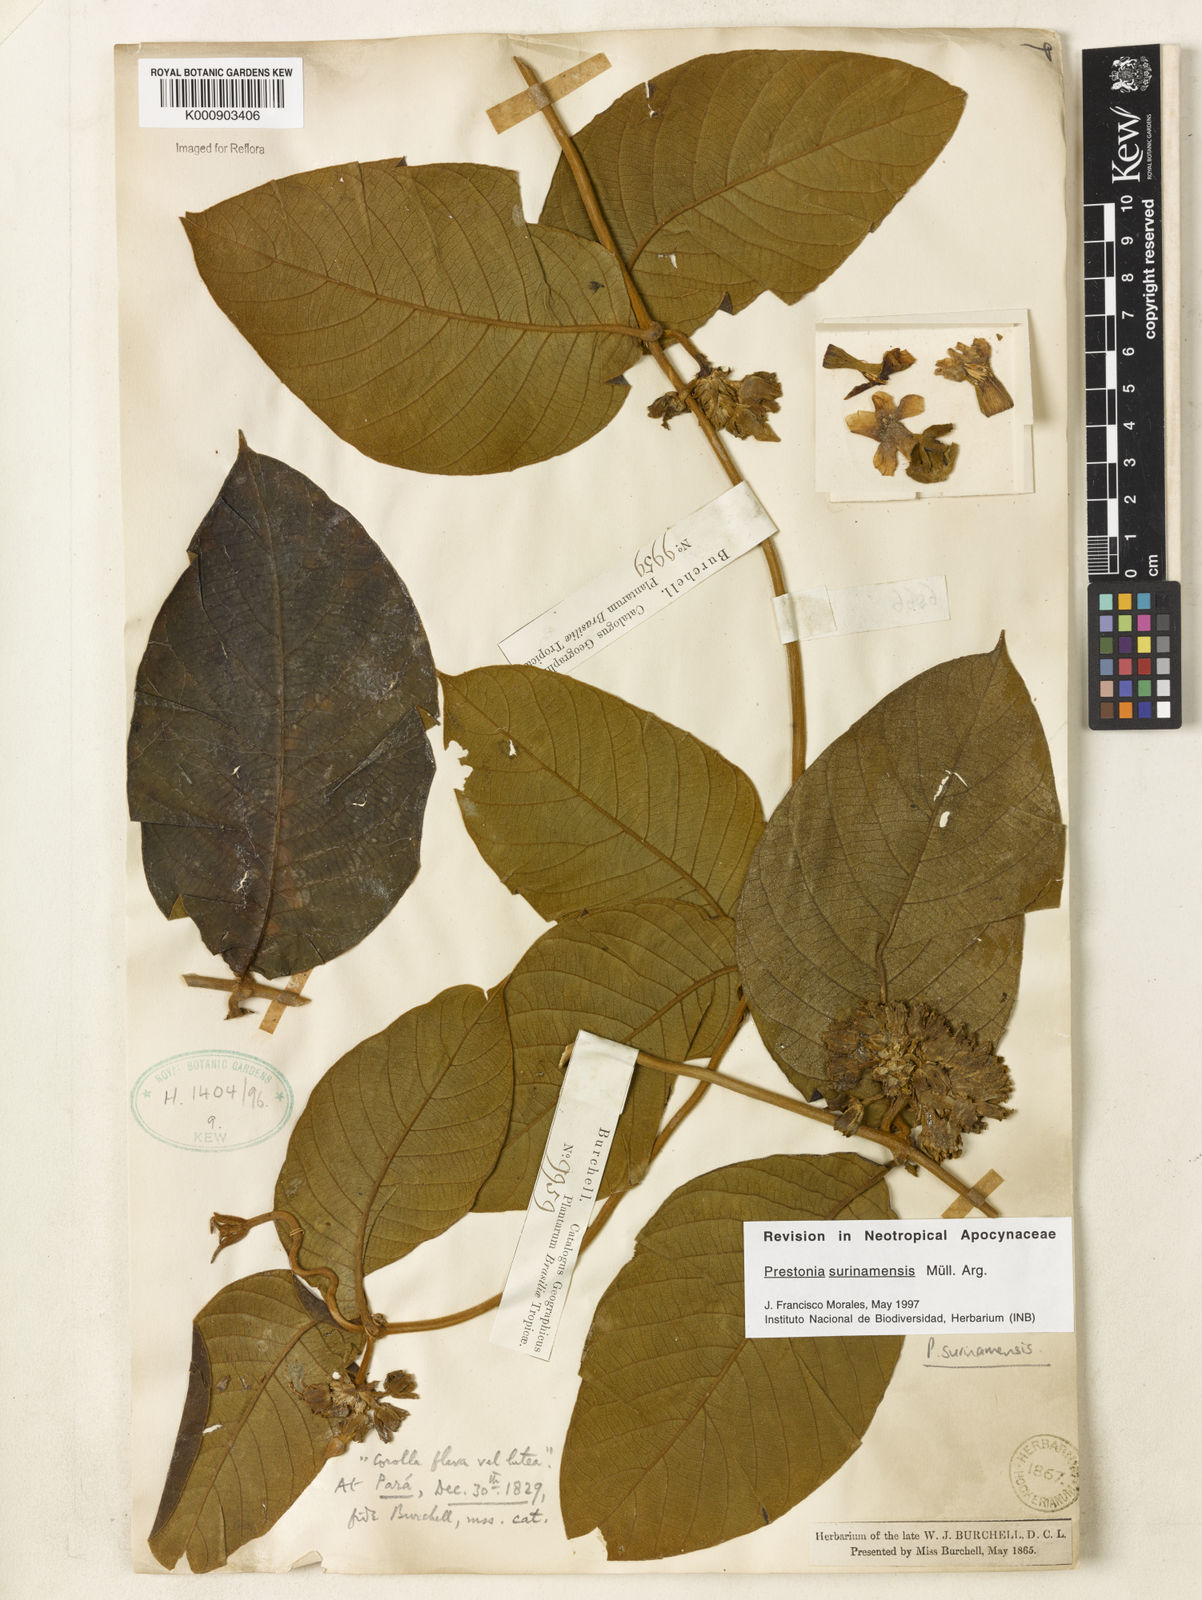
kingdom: Plantae
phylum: Tracheophyta
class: Magnoliopsida
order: Gentianales
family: Apocynaceae
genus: Prestonia
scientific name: Prestonia
